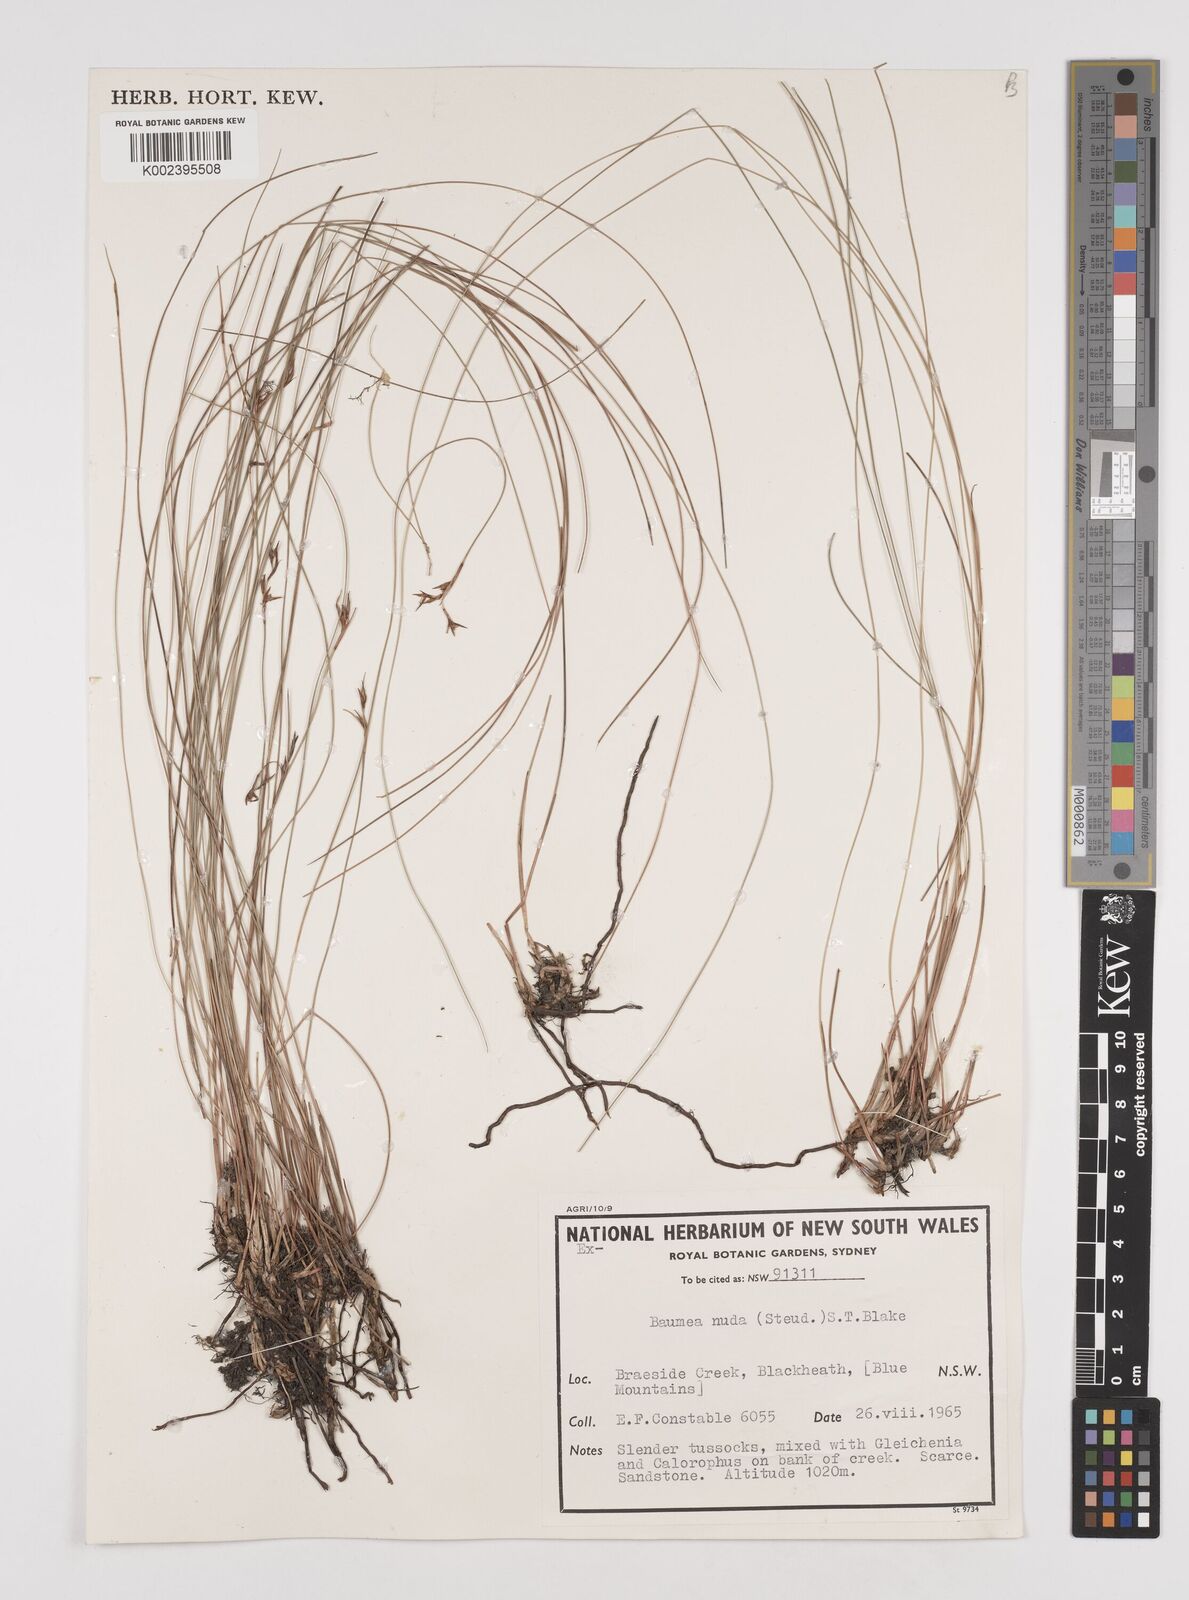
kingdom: Plantae
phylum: Tracheophyta
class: Liliopsida
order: Poales
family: Cyperaceae
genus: Machaerina
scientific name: Machaerina nuda
